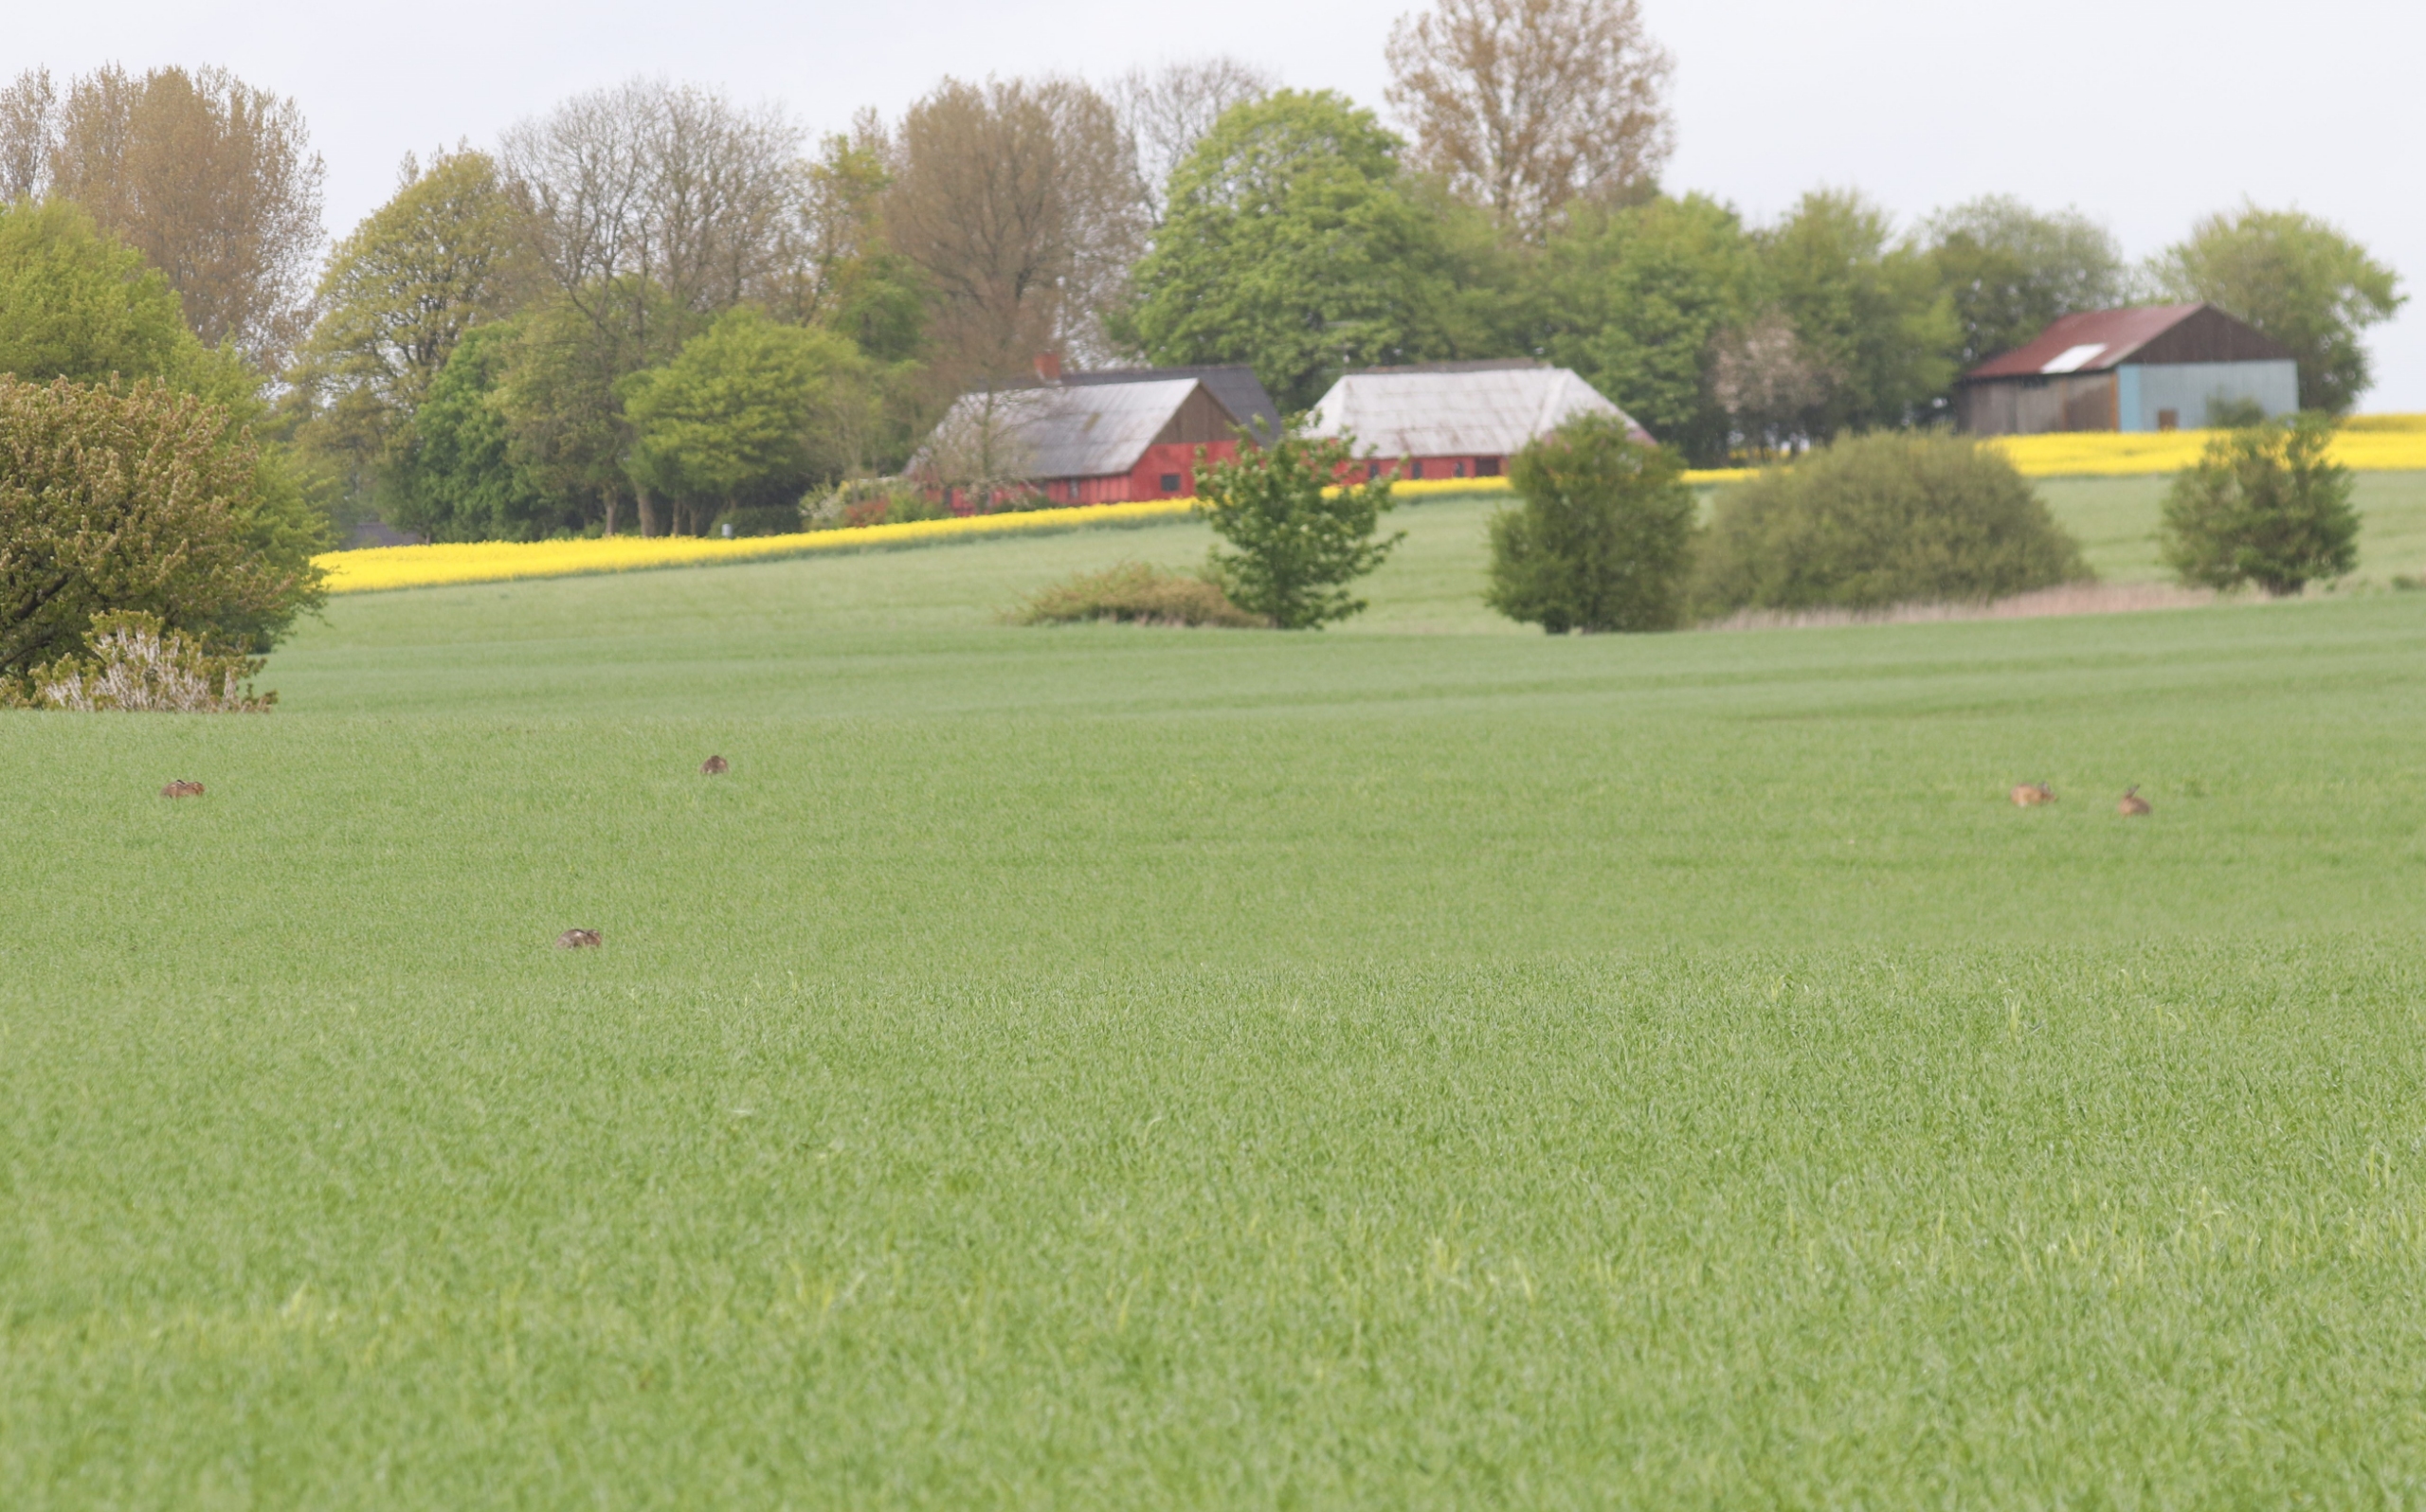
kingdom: Animalia
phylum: Chordata
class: Mammalia
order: Lagomorpha
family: Leporidae
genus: Lepus
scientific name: Lepus europaeus
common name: Hare
